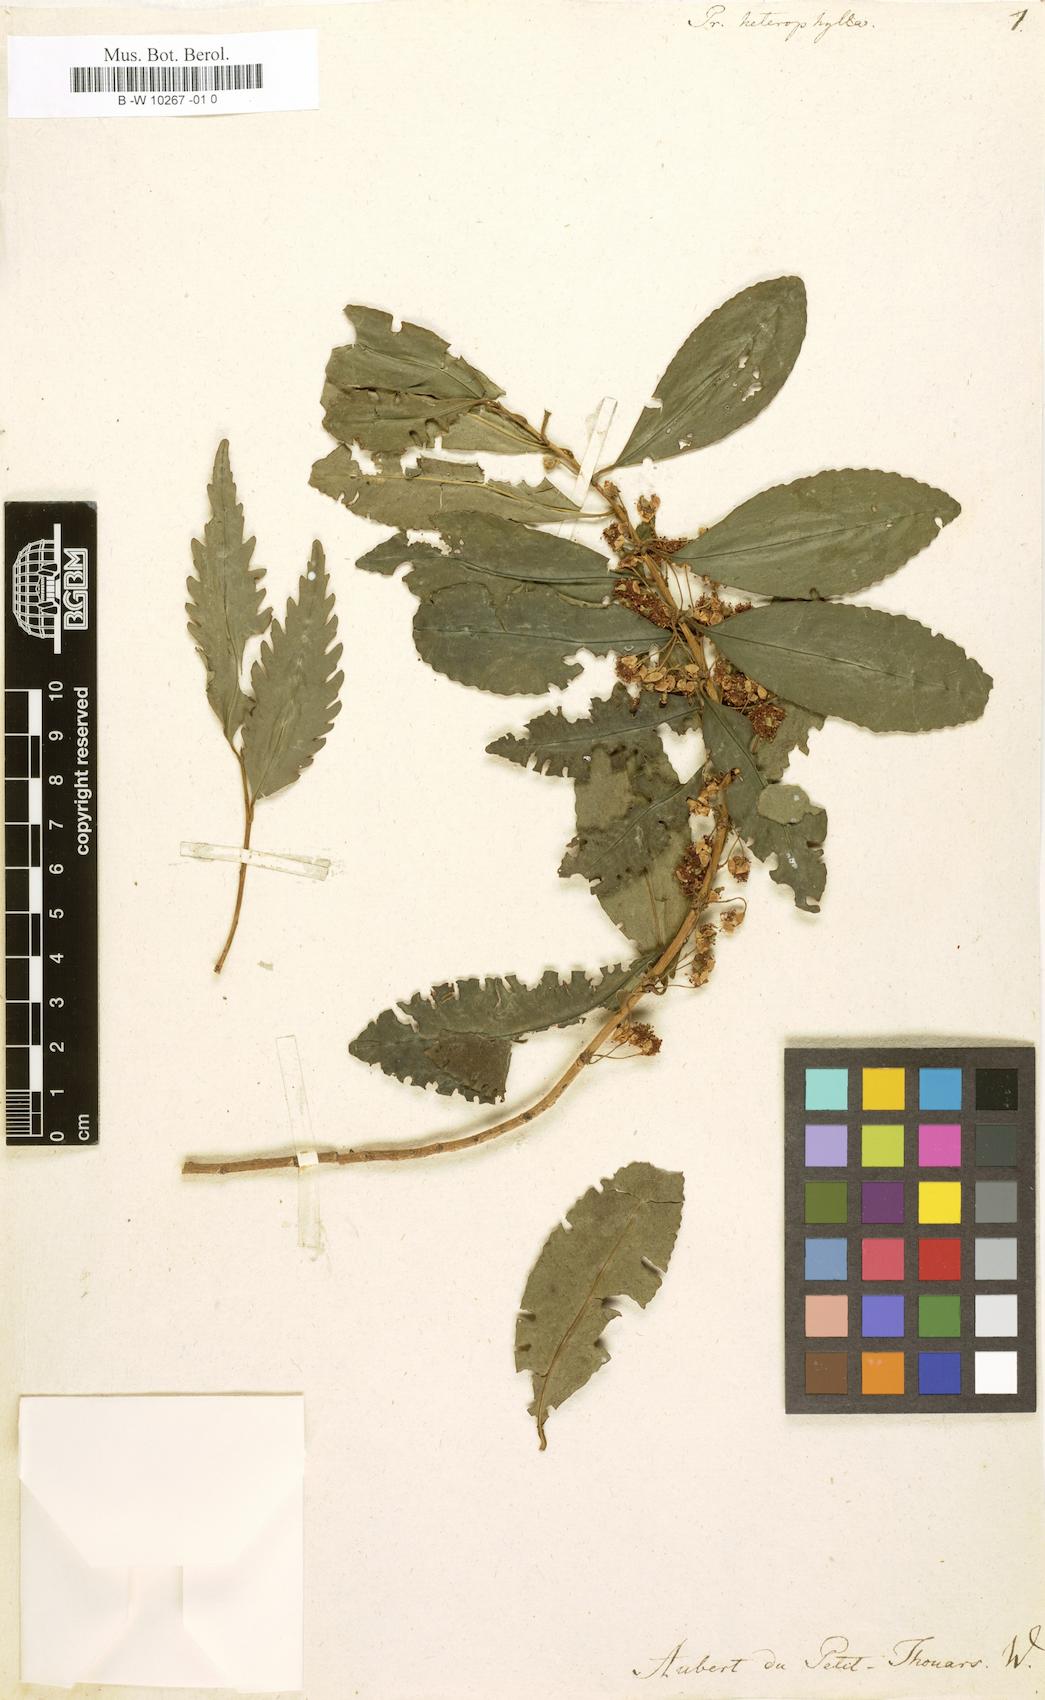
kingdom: Plantae
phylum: Tracheophyta
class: Magnoliopsida
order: Malpighiales
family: Salicaceae
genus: Prockia
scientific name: Prockia
